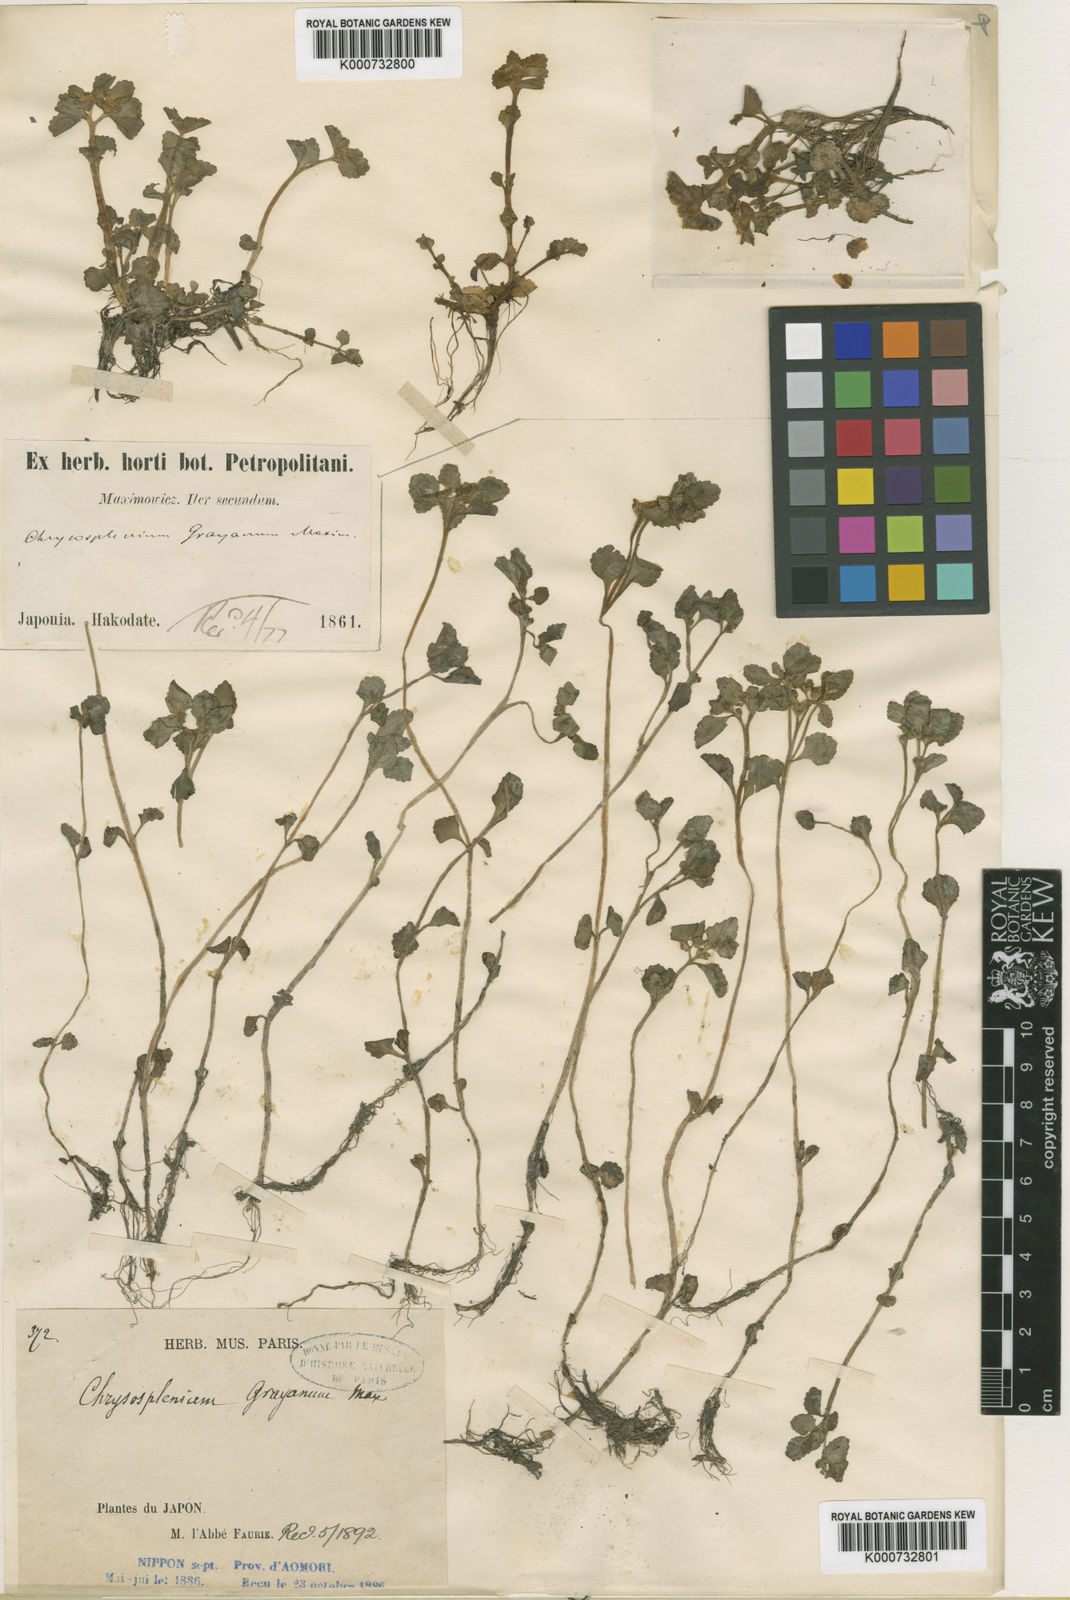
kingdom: Plantae
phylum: Tracheophyta
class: Magnoliopsida
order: Saxifragales
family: Saxifragaceae
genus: Chrysosplenium
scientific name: Chrysosplenium grayanum
